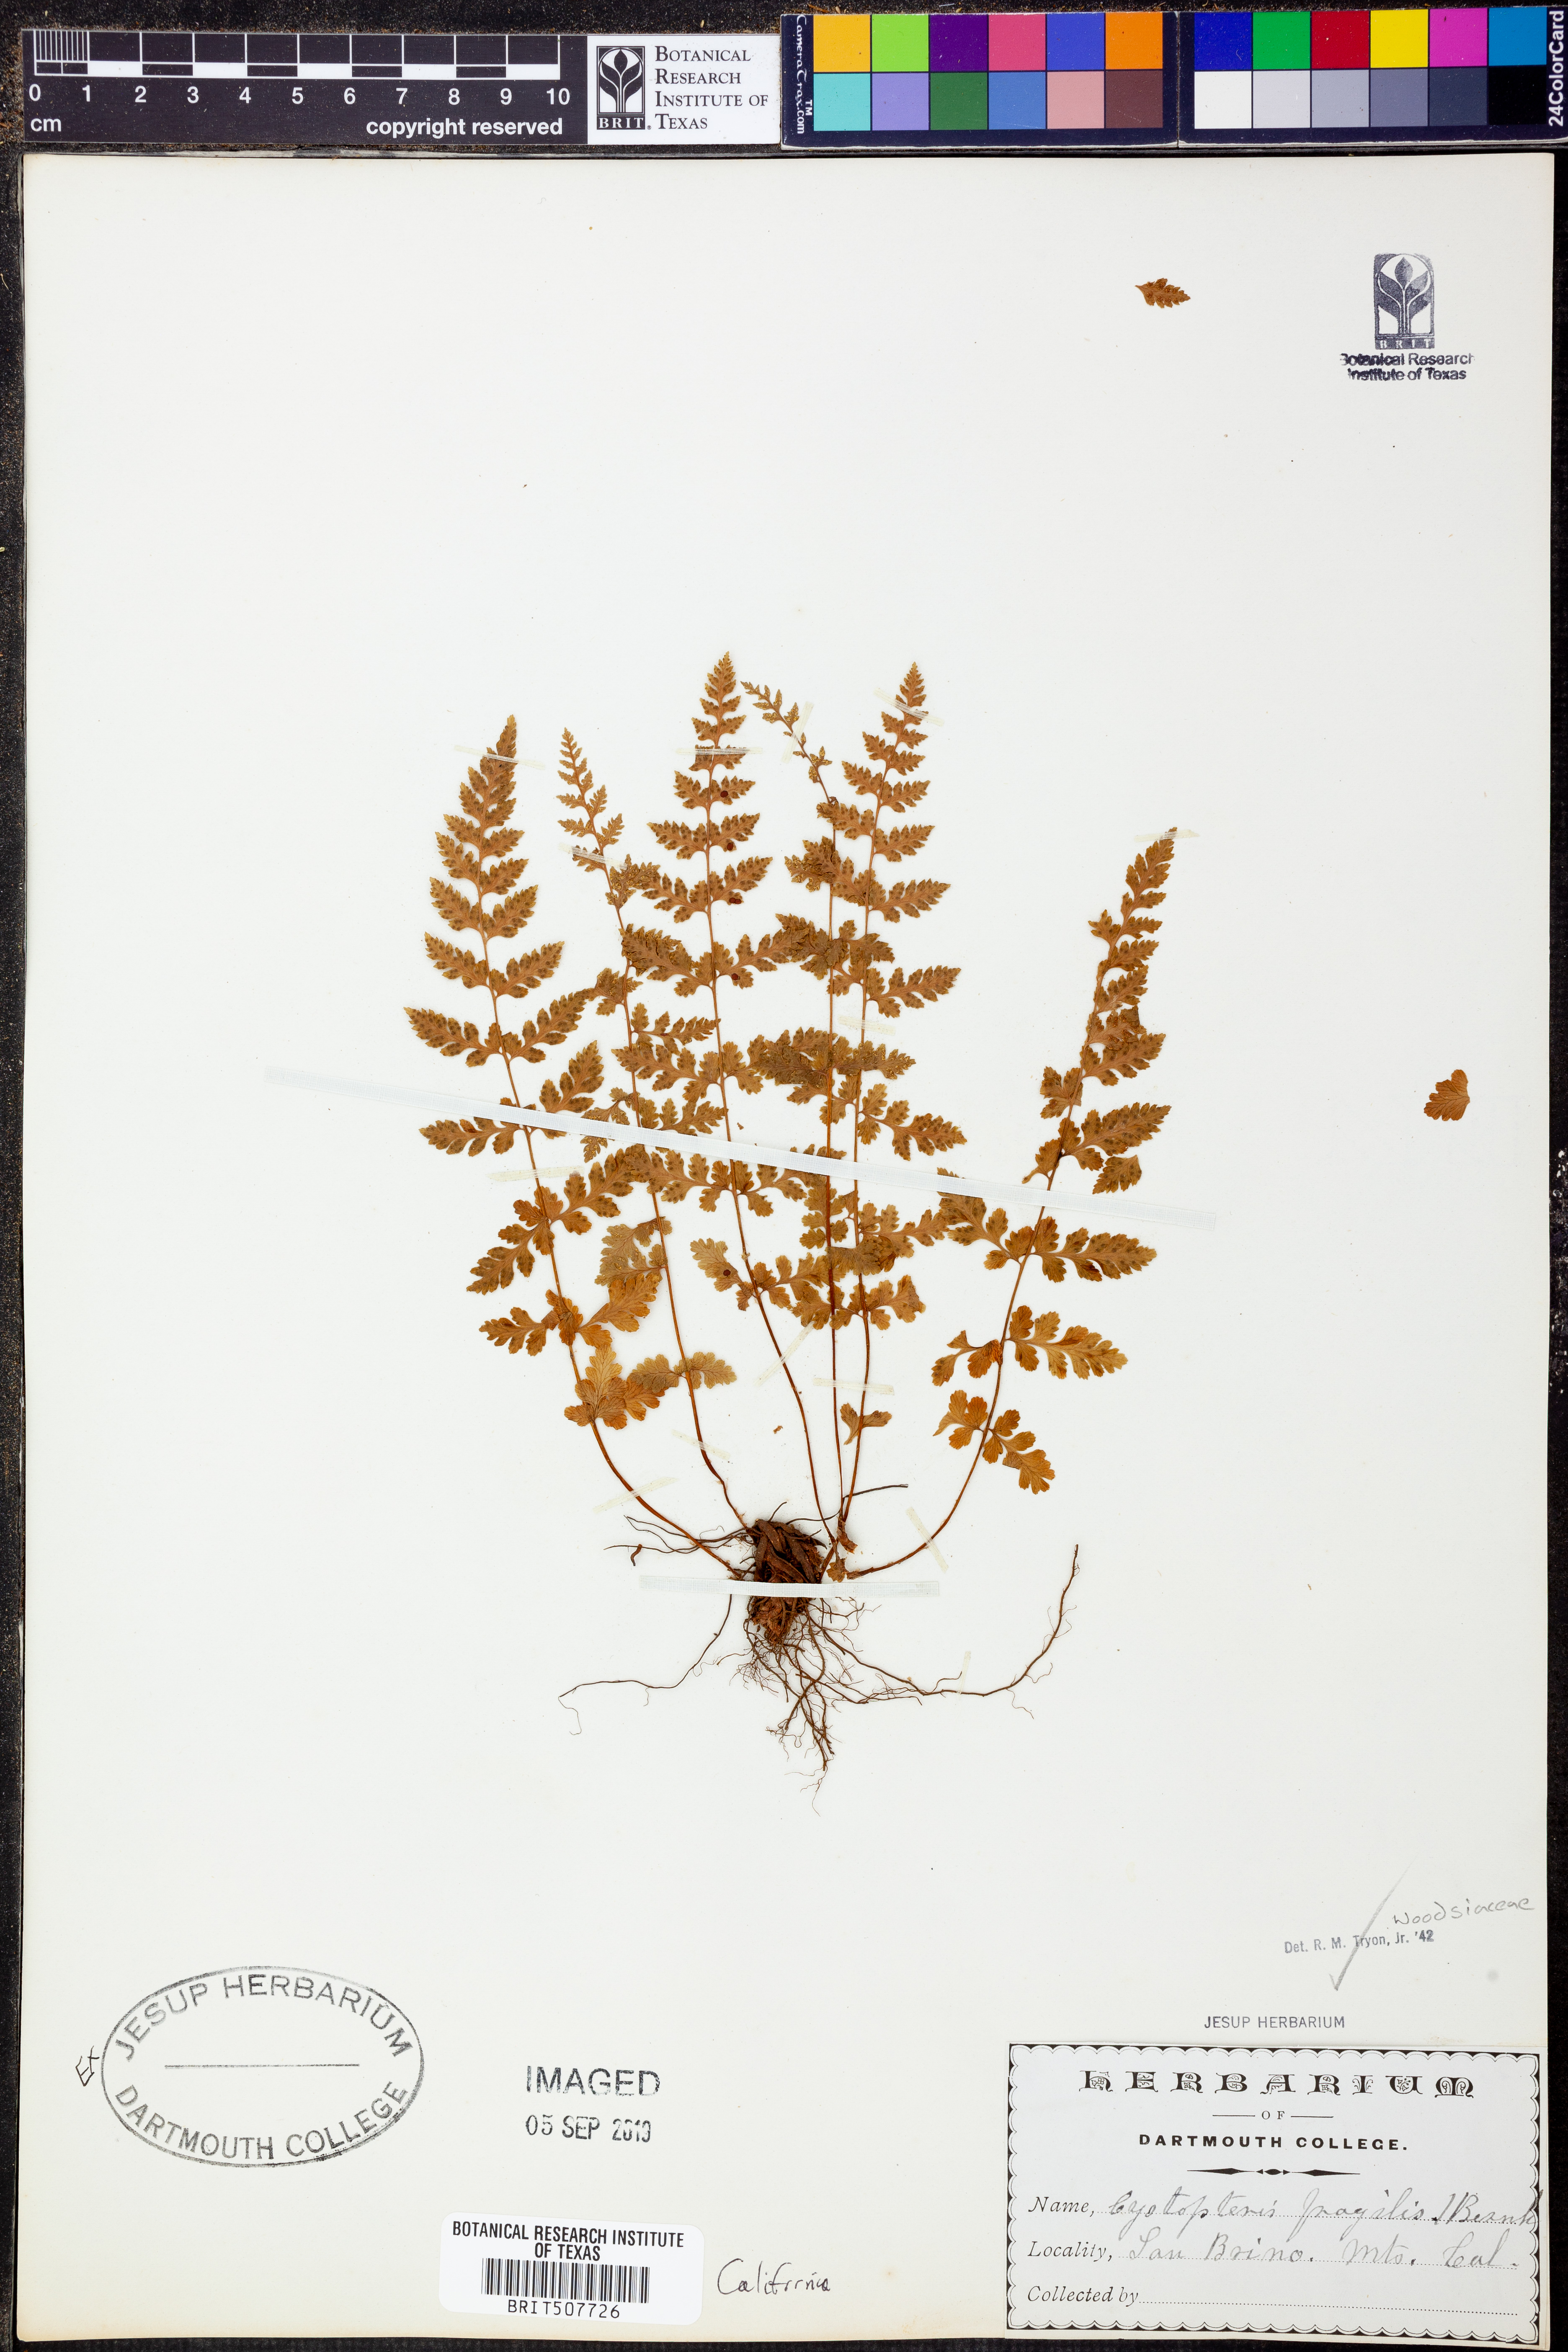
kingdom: Plantae
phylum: Tracheophyta
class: Polypodiopsida
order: Polypodiales
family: Cystopteridaceae
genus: Cystopteris
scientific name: Cystopteris fragilis
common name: Brittle bladder fern
